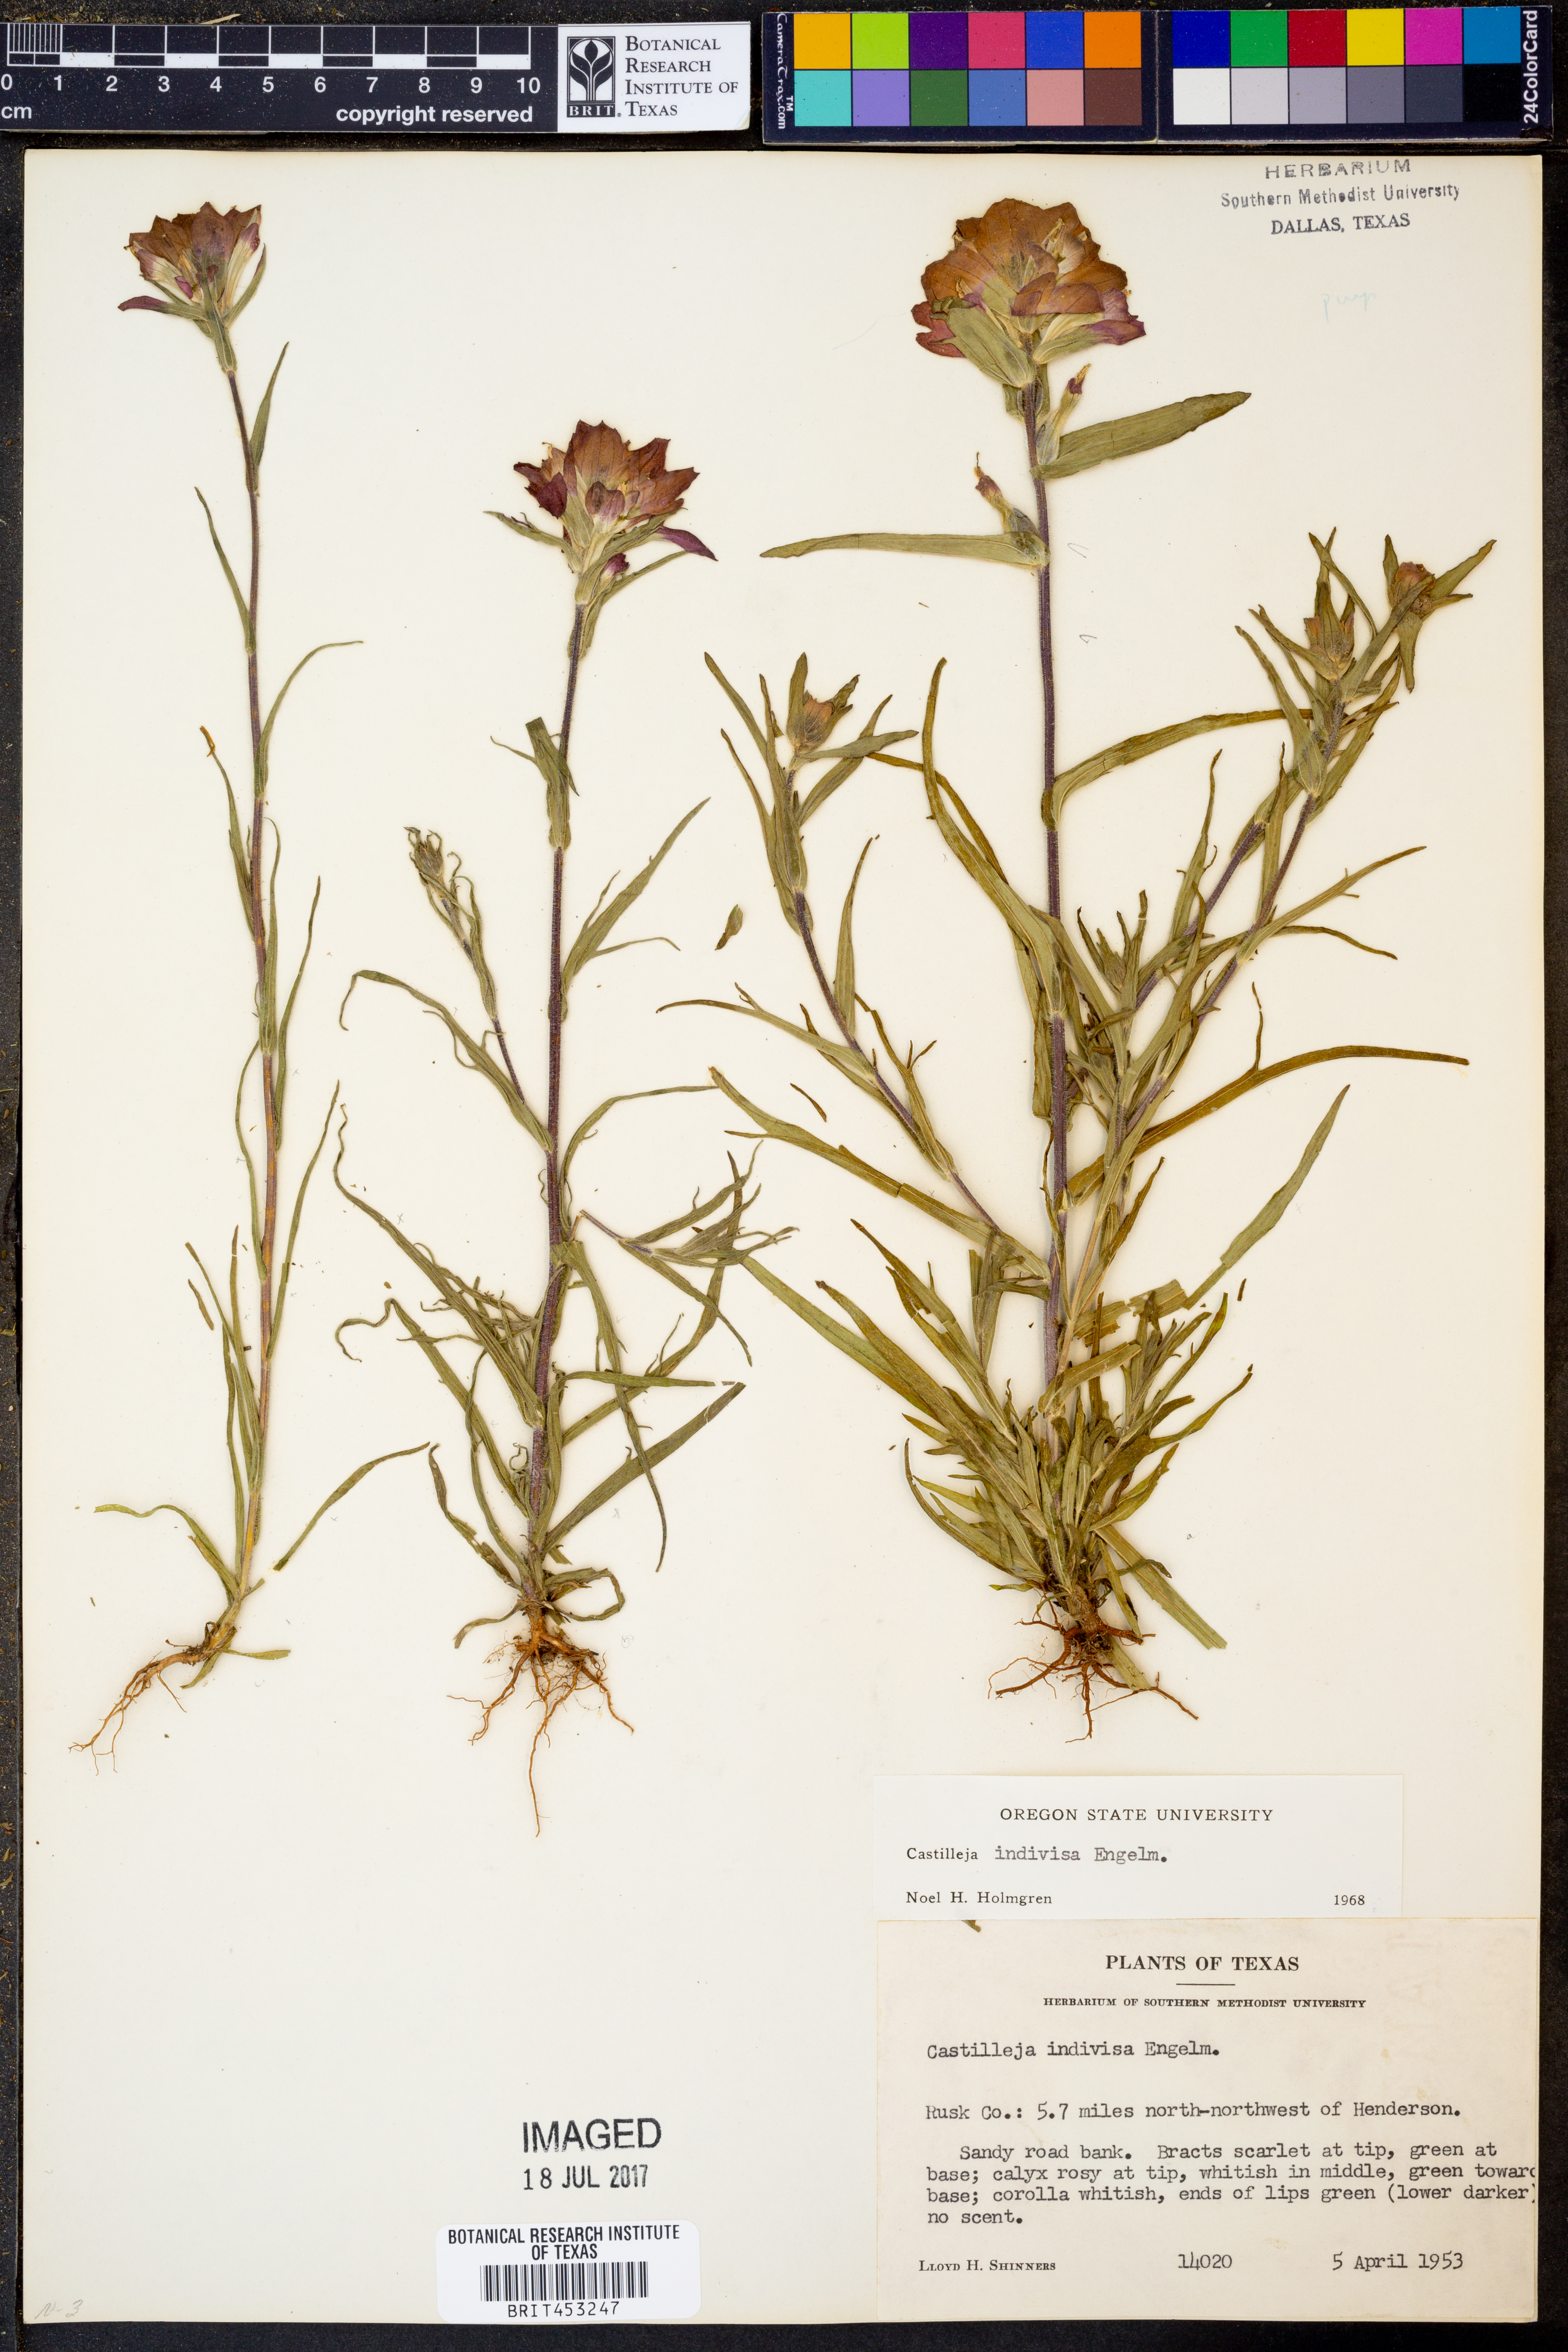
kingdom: Plantae
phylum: Tracheophyta
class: Magnoliopsida
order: Lamiales
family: Orobanchaceae
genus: Castilleja
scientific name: Castilleja indivisa
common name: Texas paintbrush
